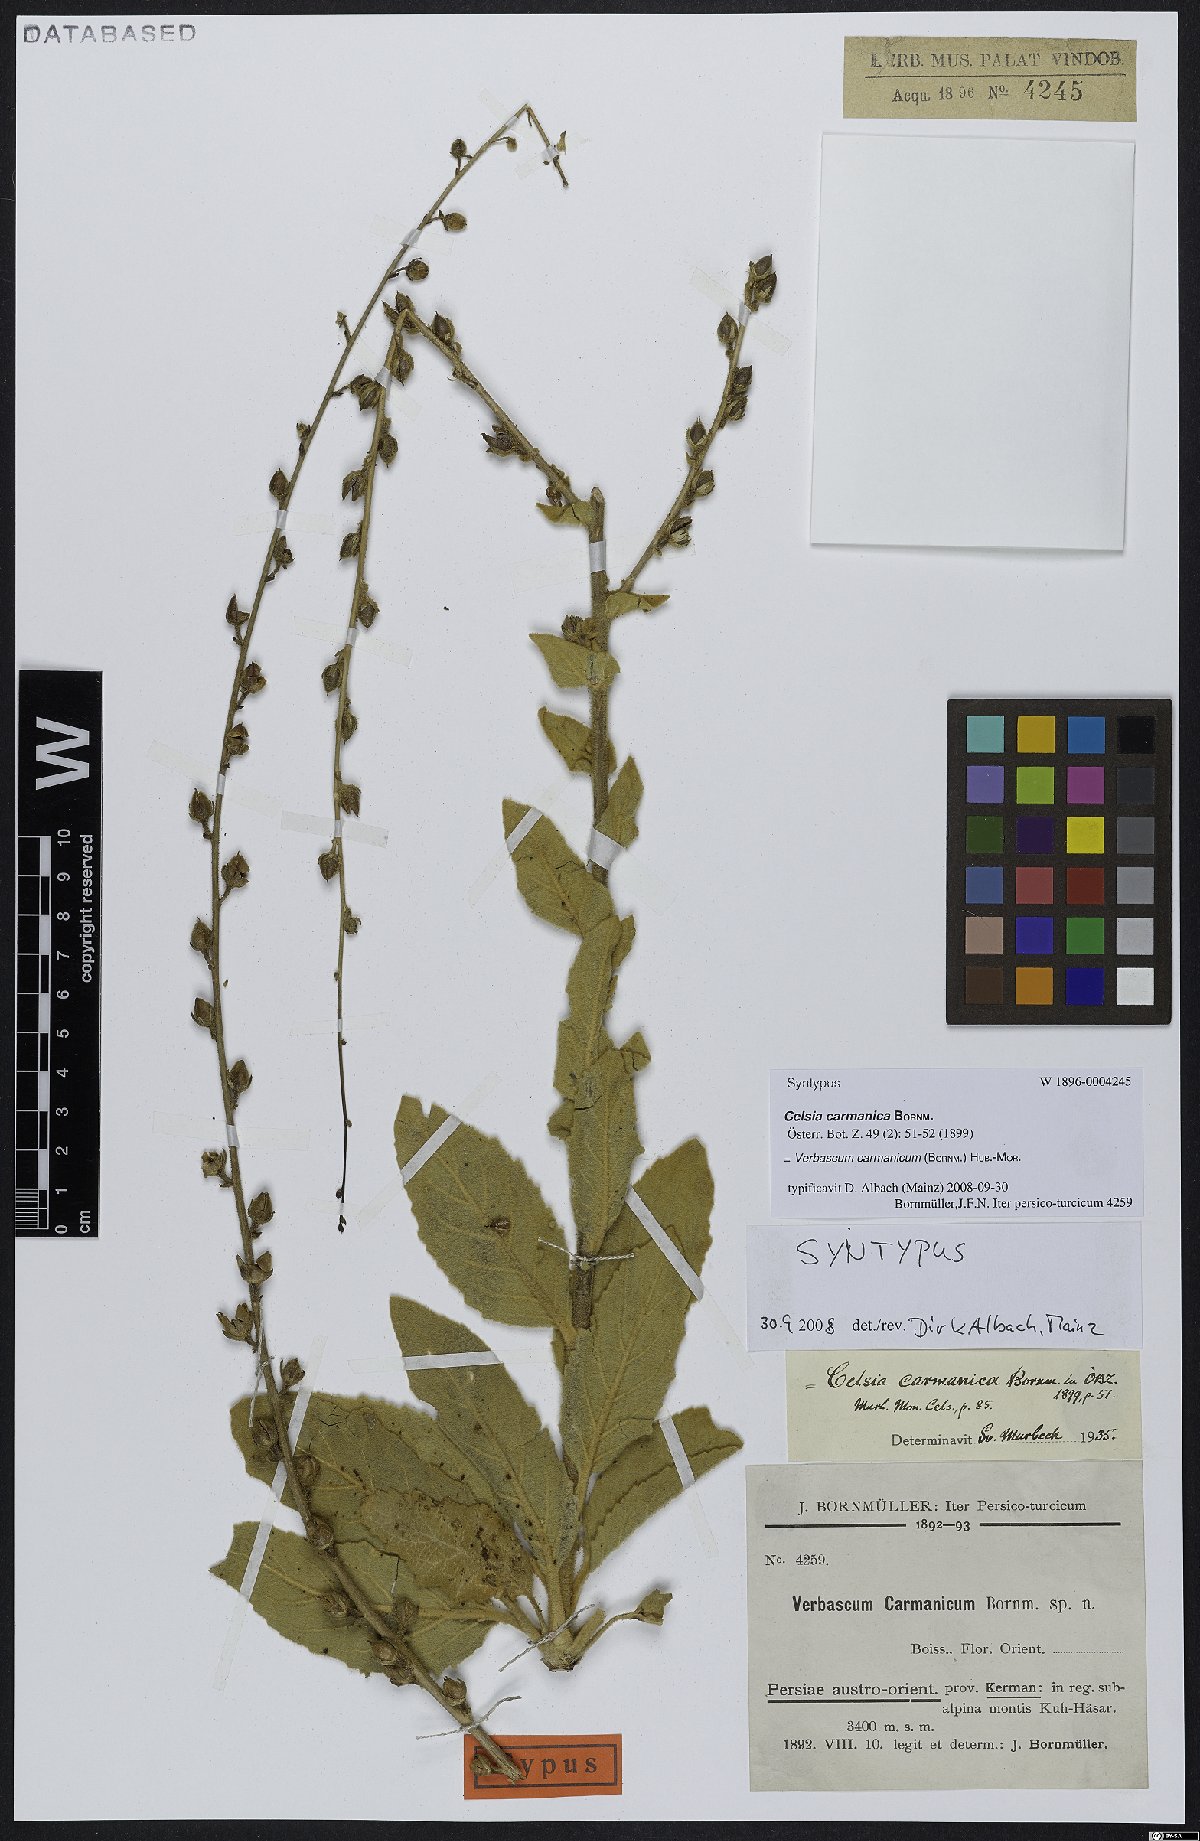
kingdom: Plantae
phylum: Tracheophyta
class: Magnoliopsida
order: Lamiales
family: Scrophulariaceae
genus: Verbascum
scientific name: Verbascum carmanicum
